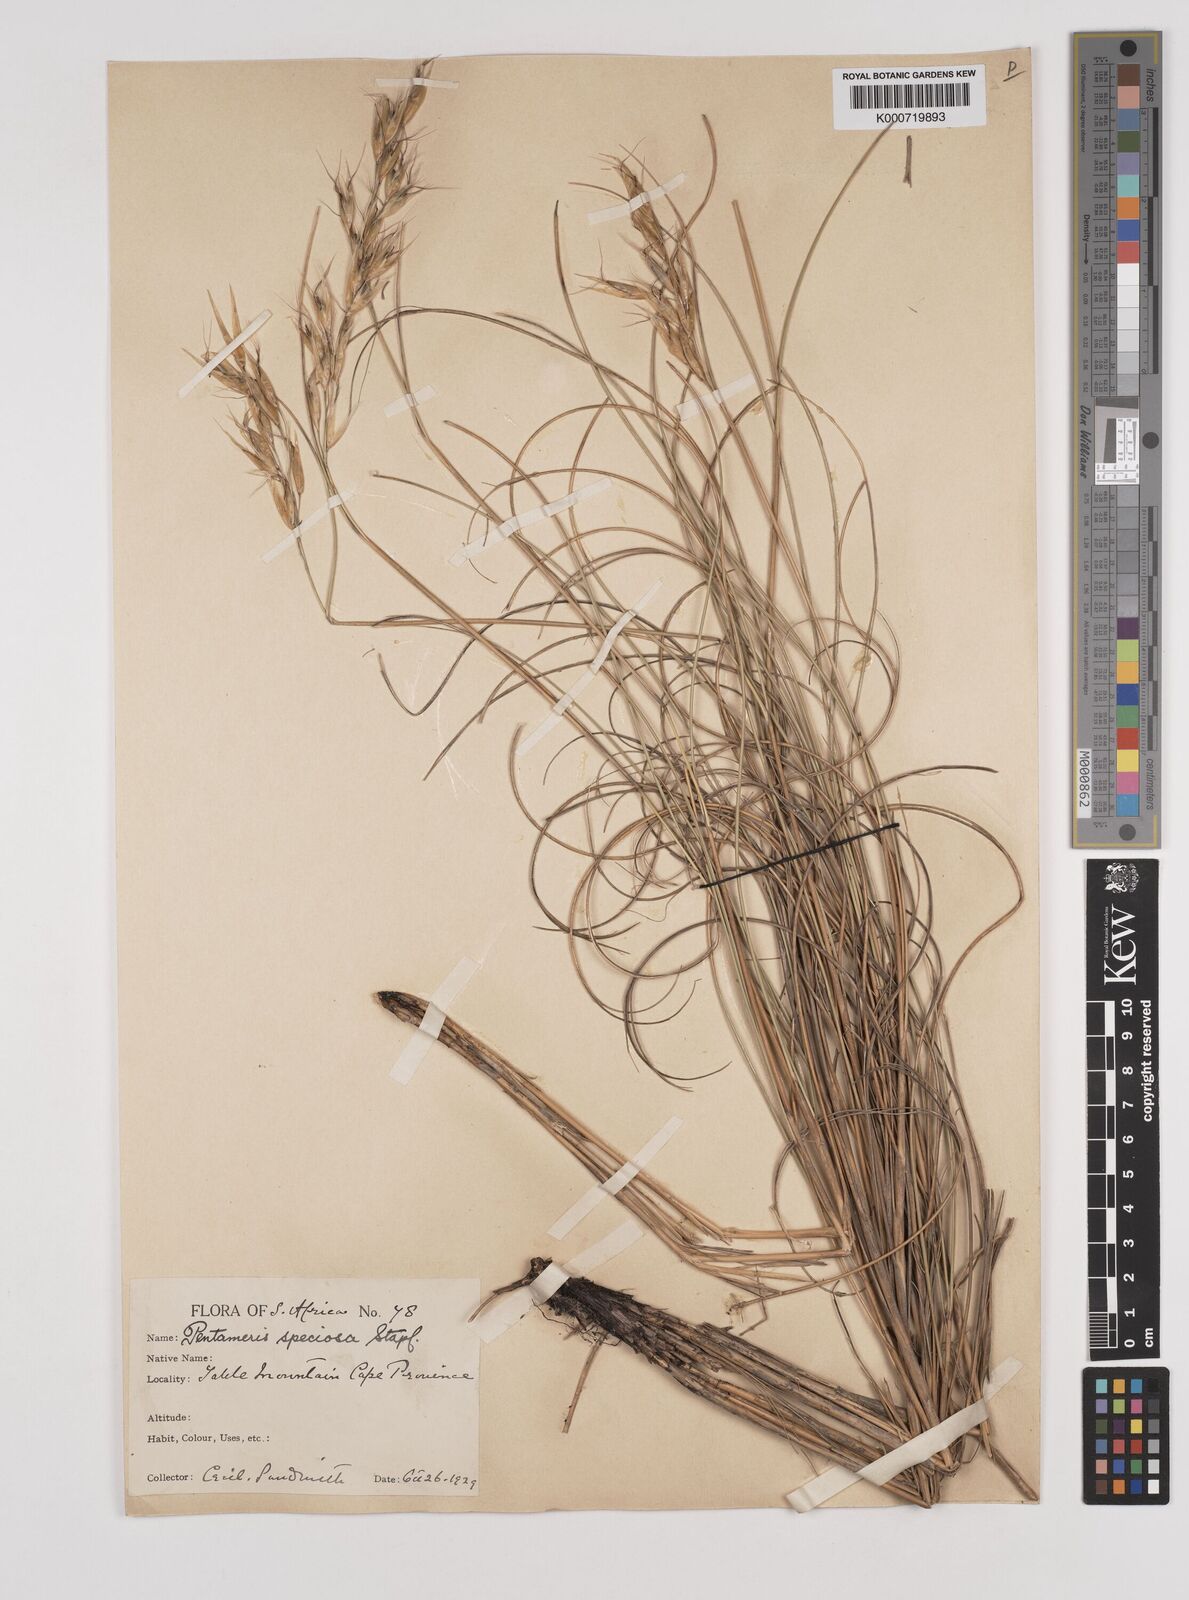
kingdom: Plantae
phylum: Tracheophyta
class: Liliopsida
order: Poales
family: Poaceae
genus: Pentameris
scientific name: Pentameris macrocalycina
